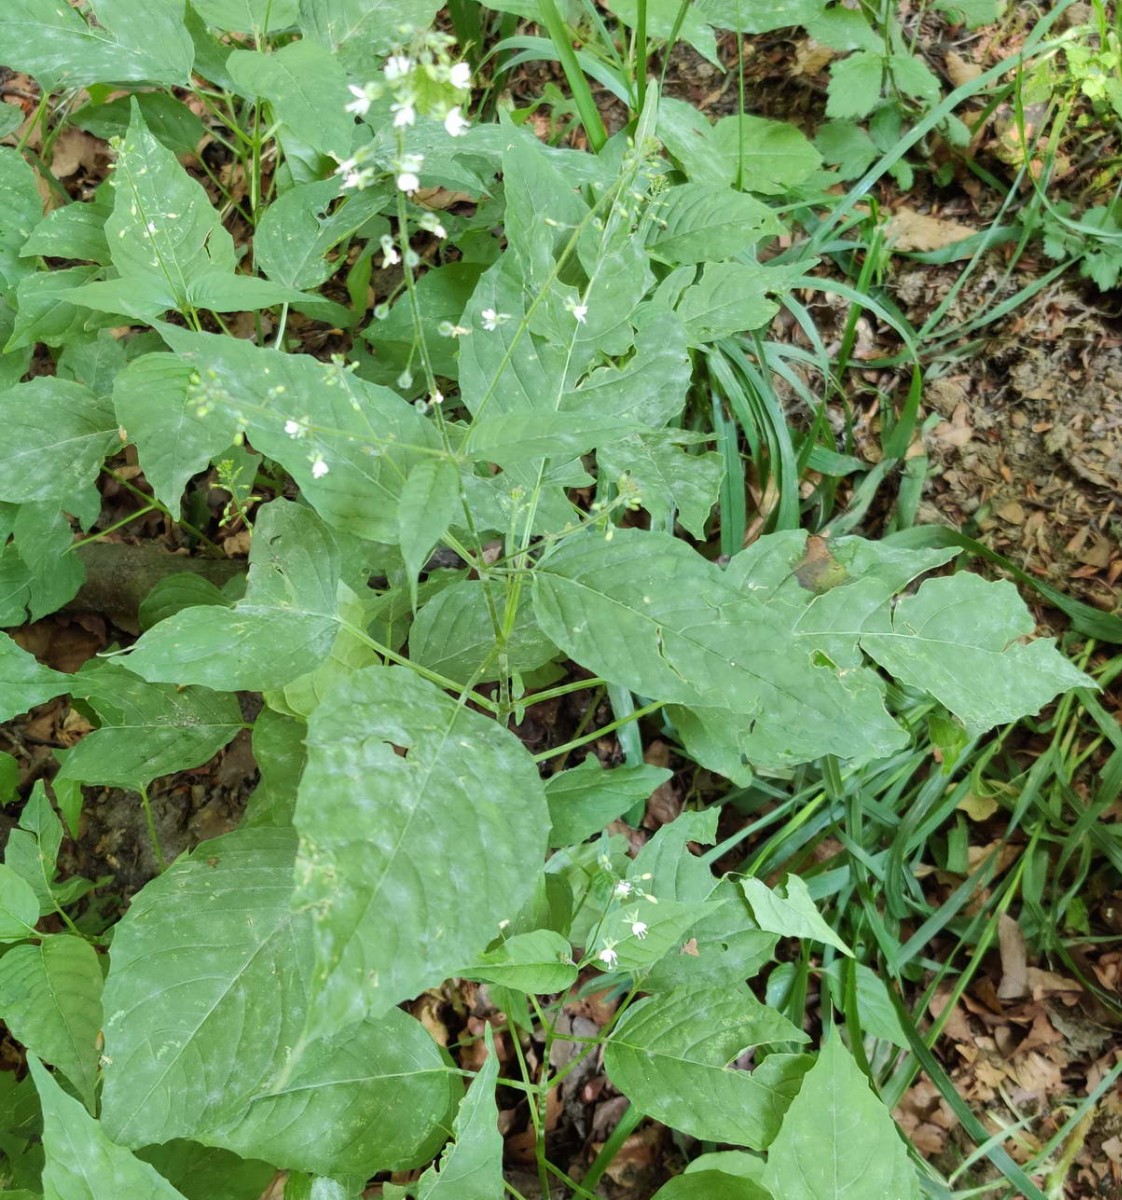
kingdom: Fungi
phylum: Ascomycota
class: Leotiomycetes
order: Helotiales
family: Erysiphaceae
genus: Erysiphe
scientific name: Erysiphe circaeae
